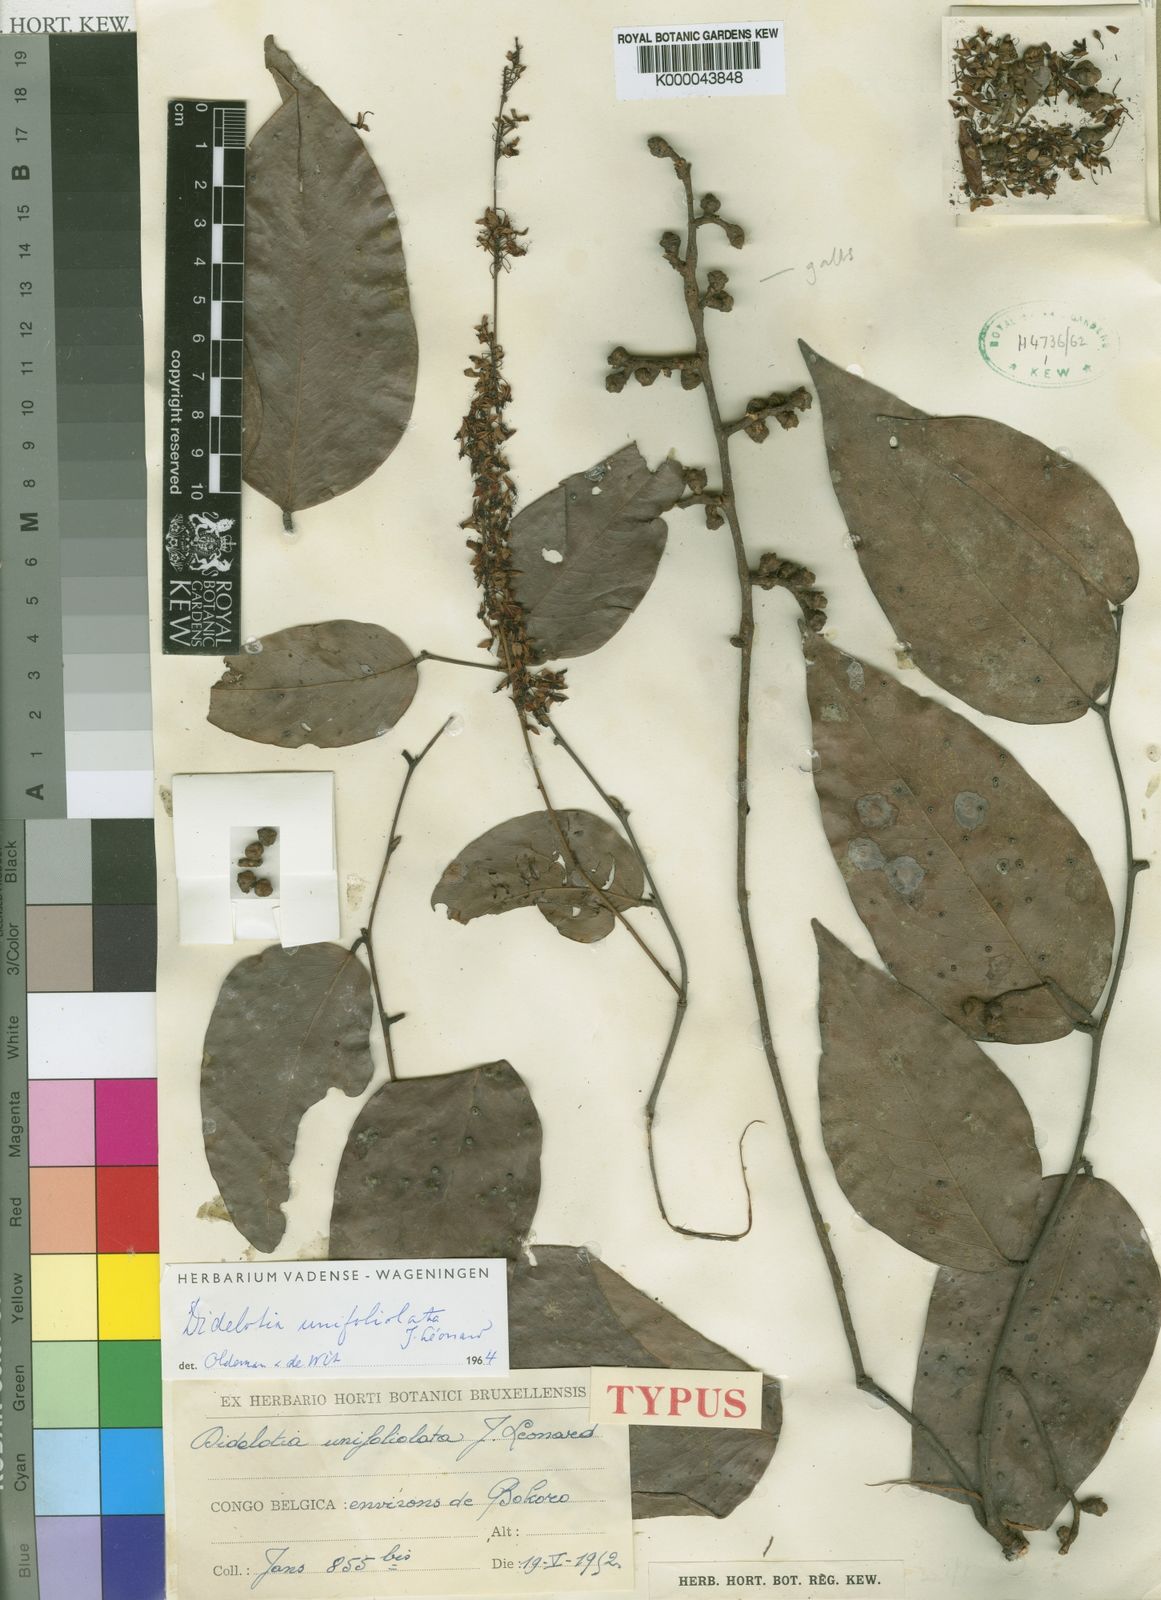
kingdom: Plantae
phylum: Tracheophyta
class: Magnoliopsida
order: Fabales
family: Fabaceae
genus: Didelotia
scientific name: Didelotia
